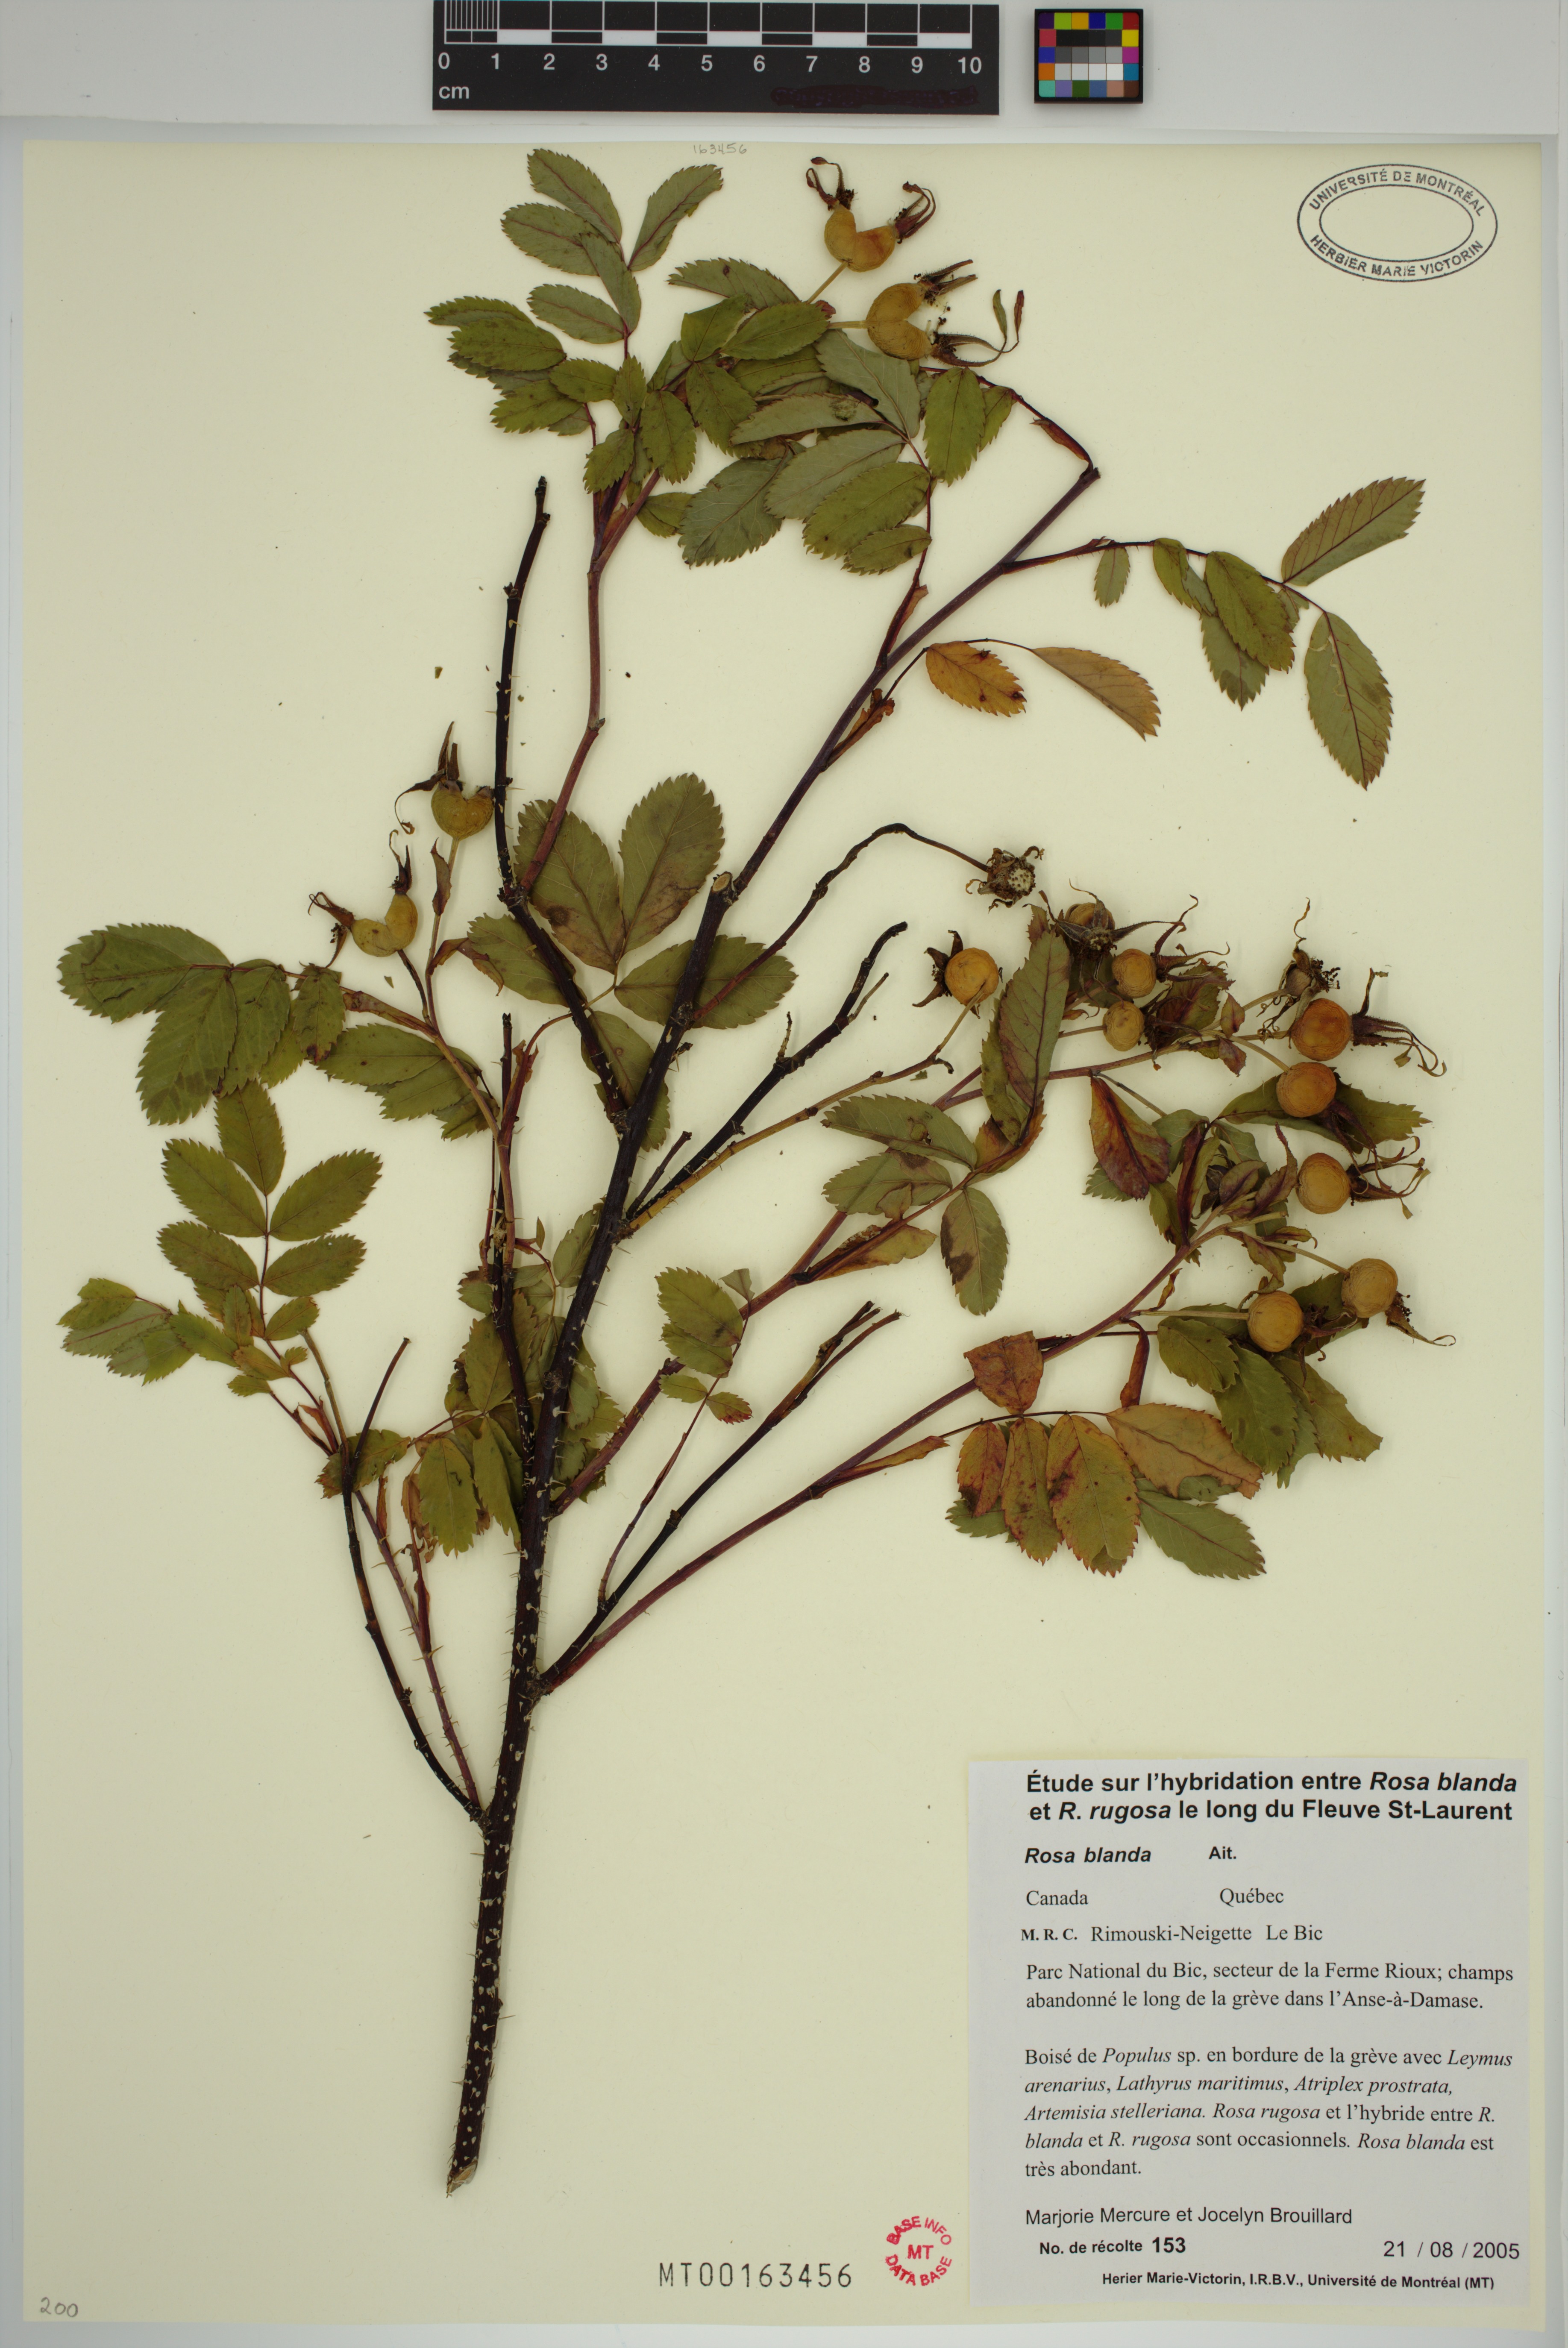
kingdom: Plantae
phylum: Tracheophyta
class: Magnoliopsida
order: Rosales
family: Rosaceae
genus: Rosa
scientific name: Rosa blanda
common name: Smooth rose
